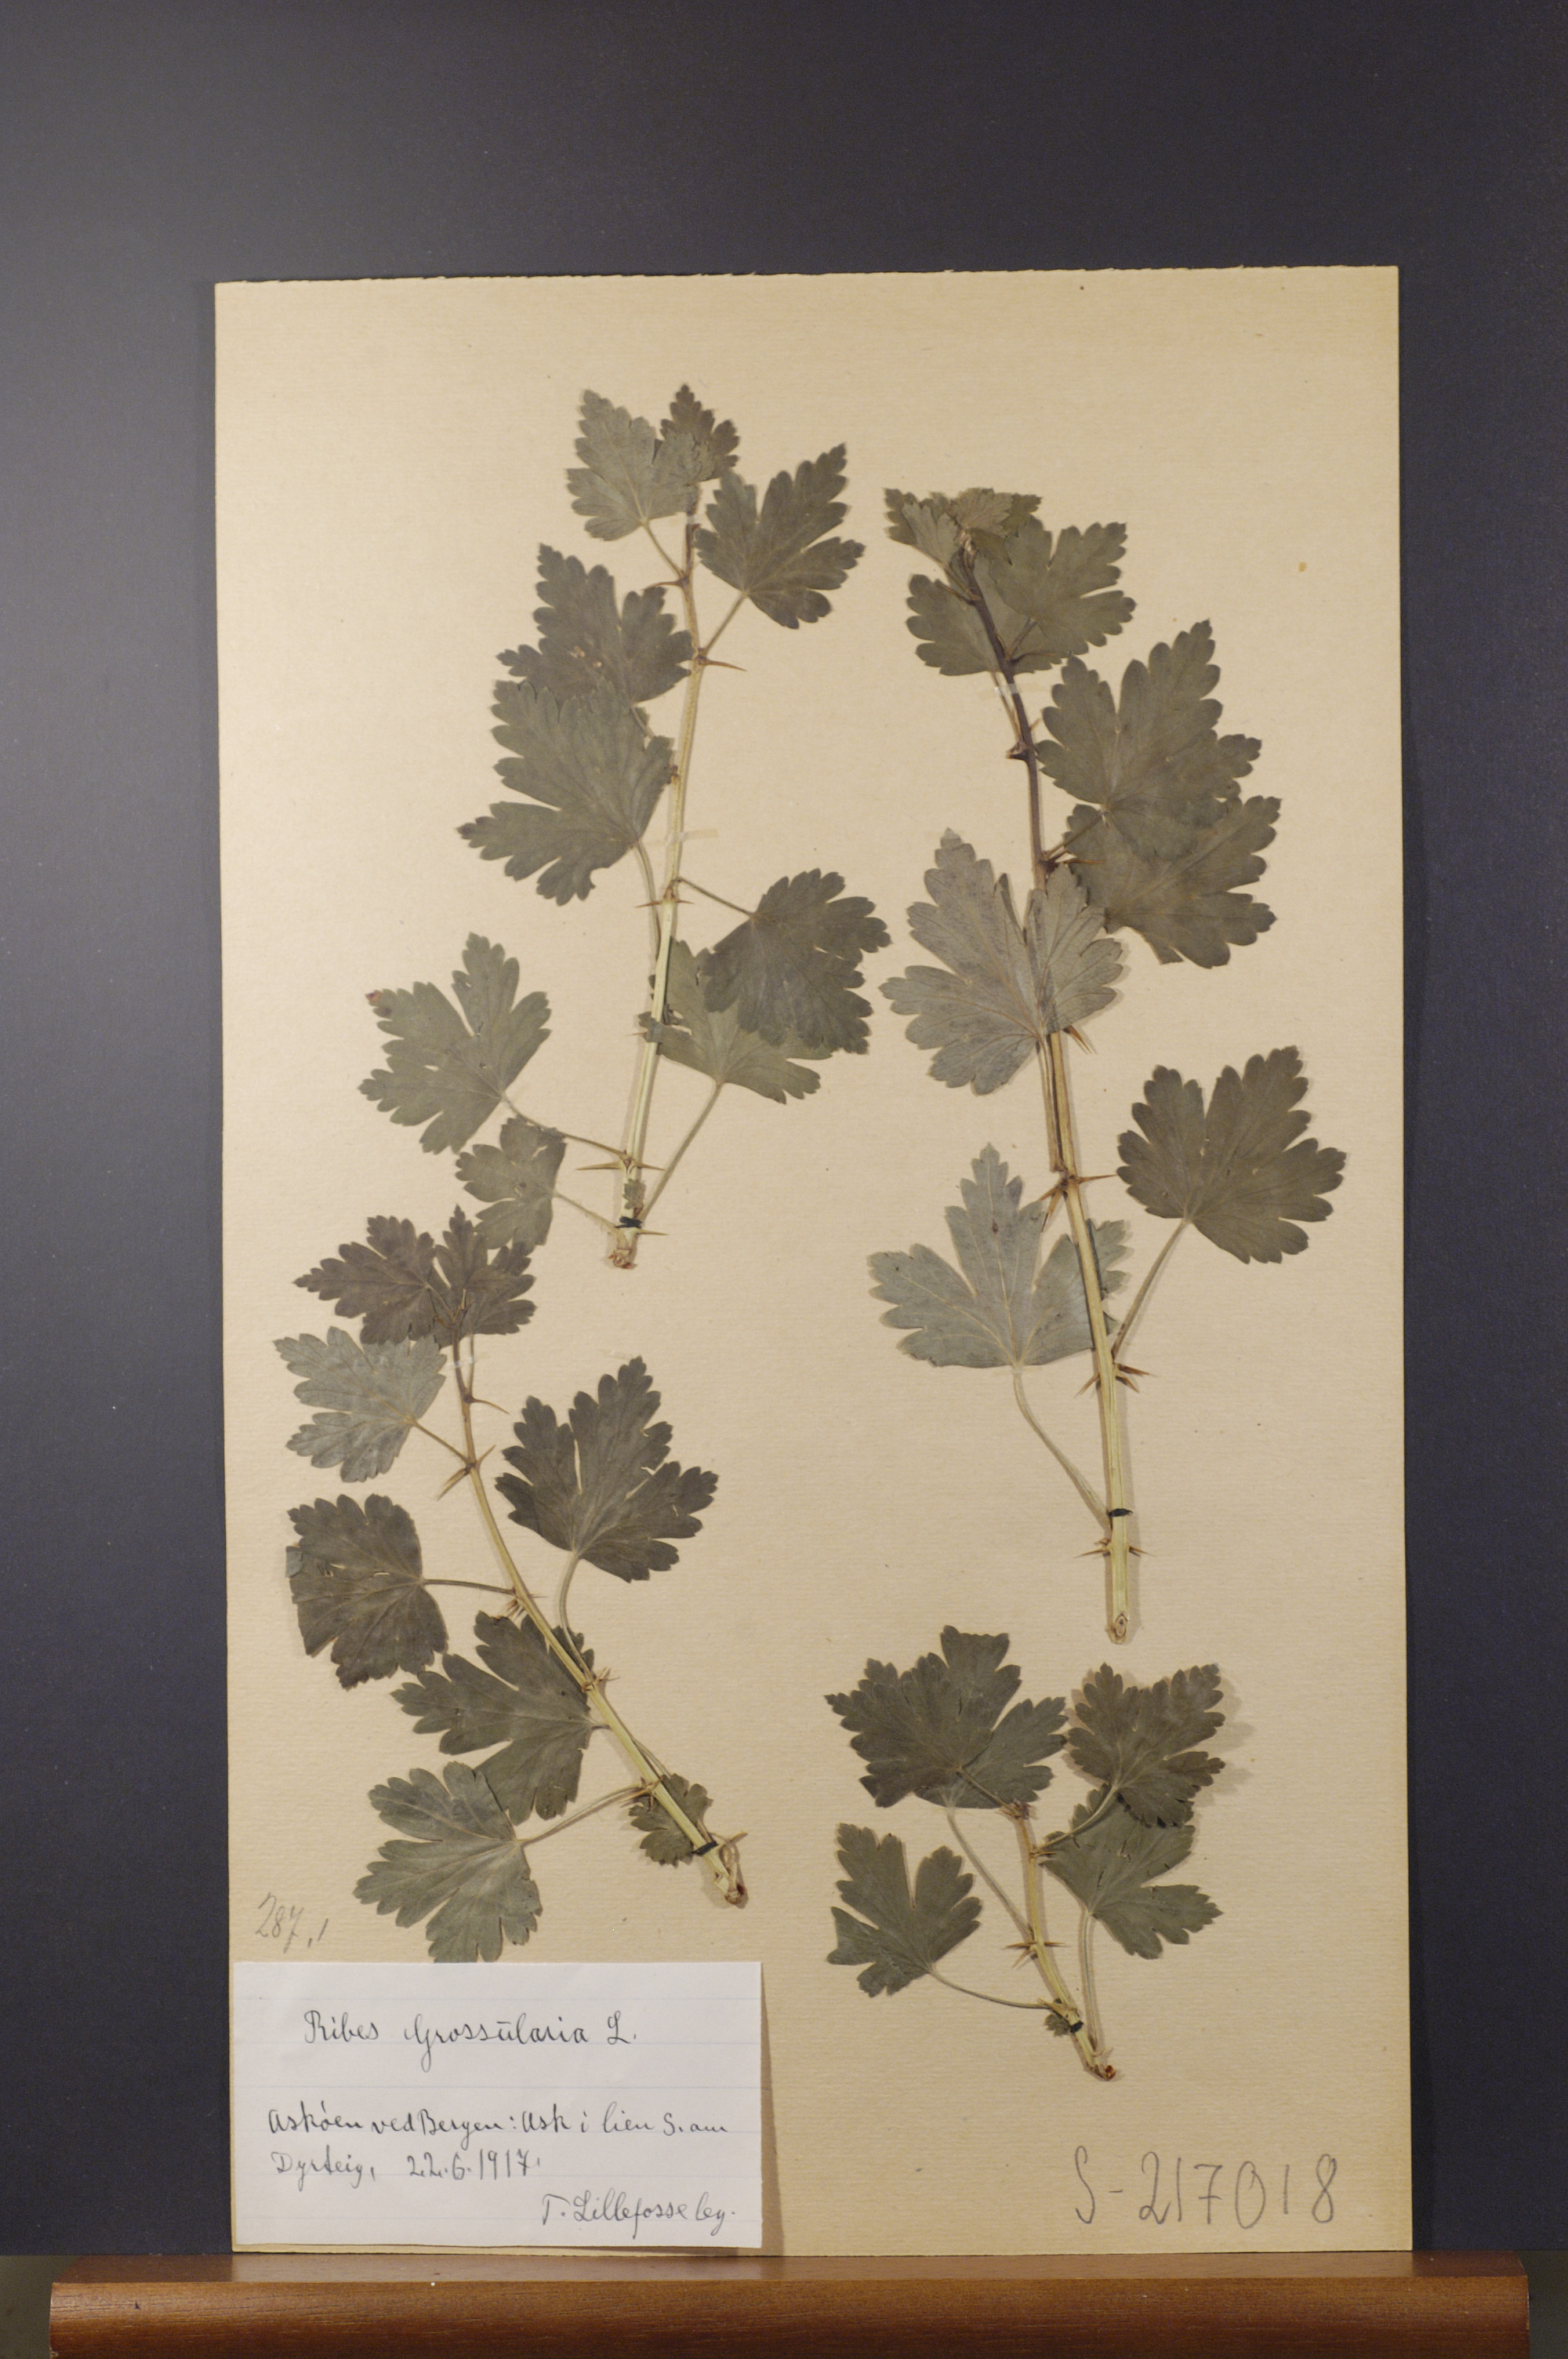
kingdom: Plantae
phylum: Tracheophyta
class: Magnoliopsida
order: Saxifragales
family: Grossulariaceae
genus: Ribes
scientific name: Ribes uva-crispa
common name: Gooseberry
